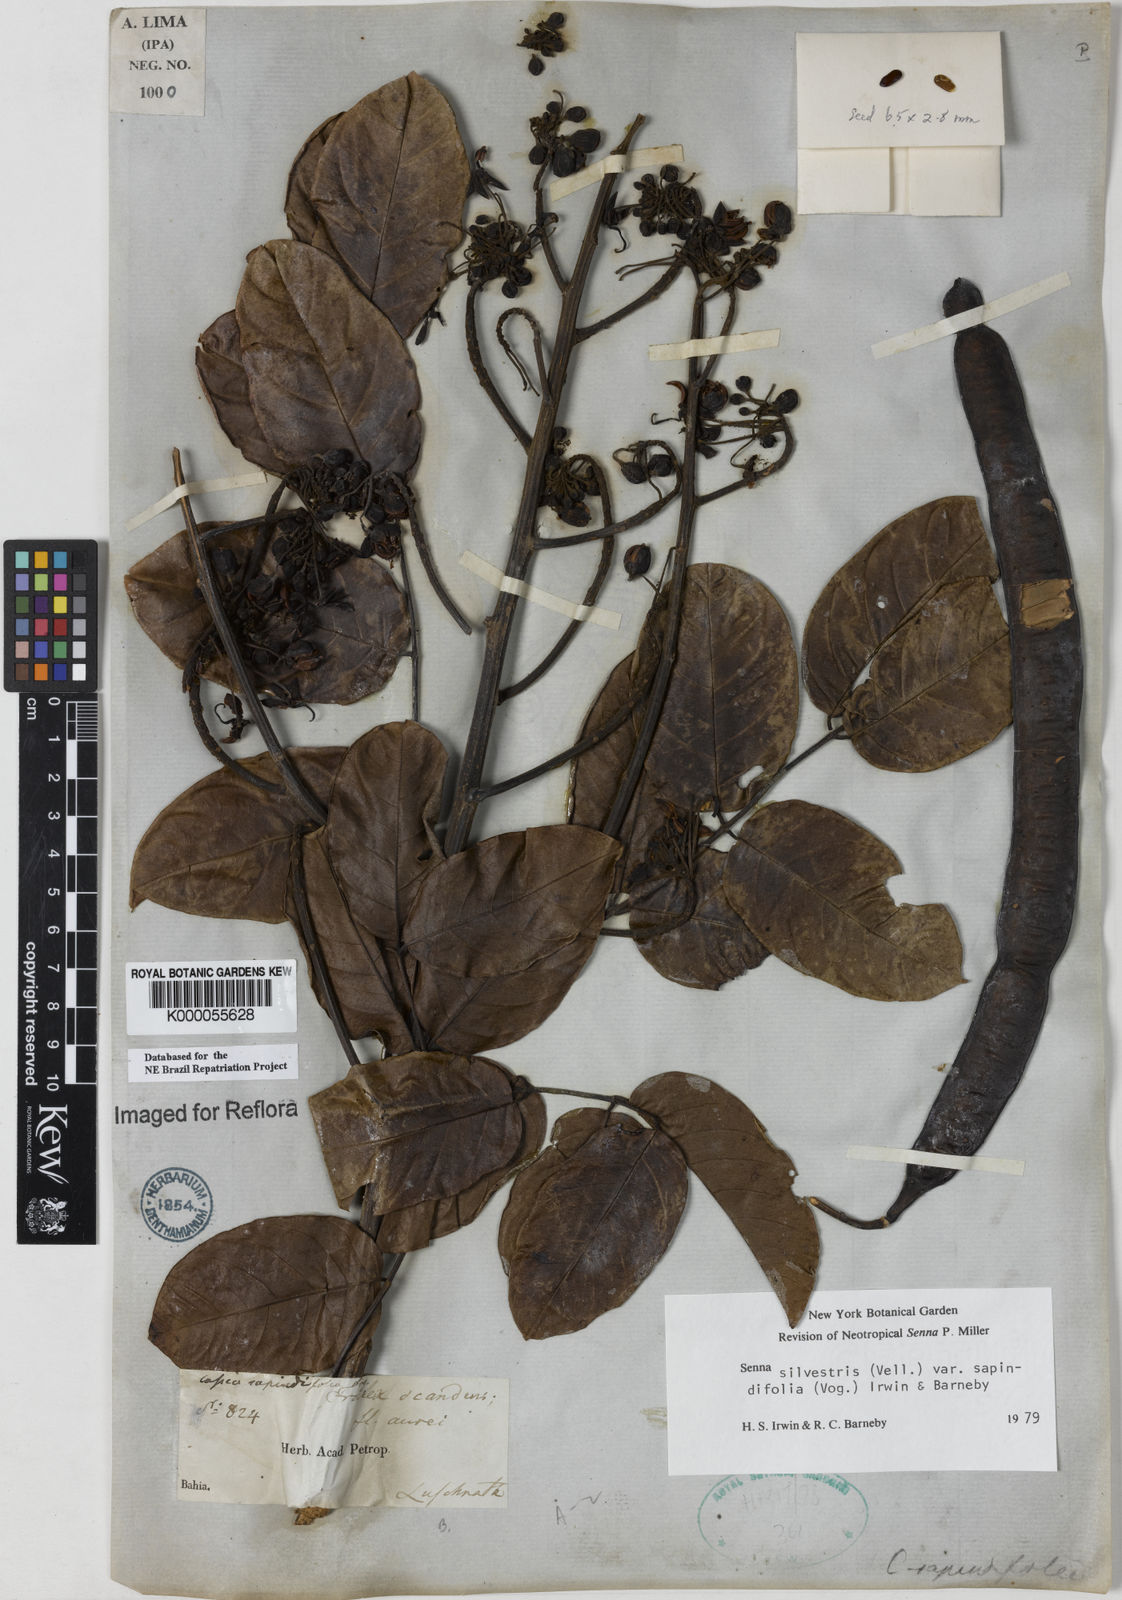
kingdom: Plantae
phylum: Tracheophyta
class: Magnoliopsida
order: Fabales
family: Fabaceae
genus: Senna
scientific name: Senna silvestris
